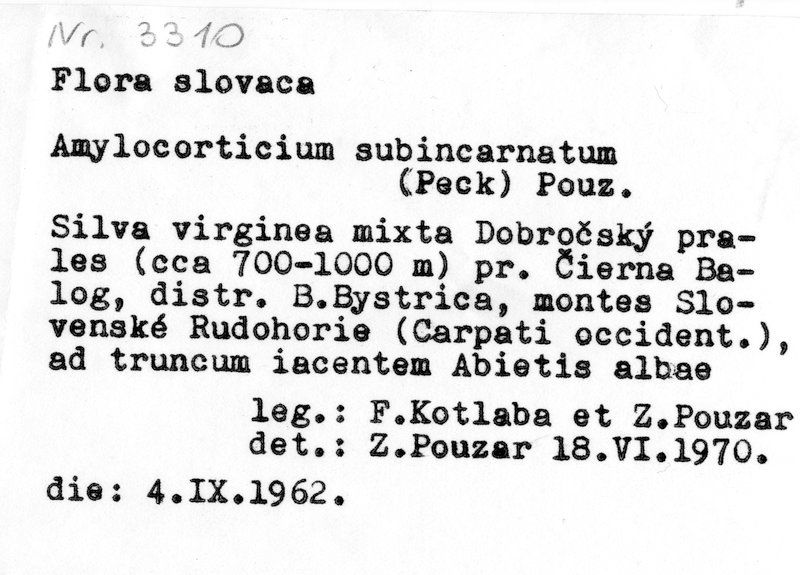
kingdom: Fungi
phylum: Basidiomycota
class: Agaricomycetes
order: Amylocorticiales
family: Amylocorticiaceae
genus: Amylocorticium
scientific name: Amylocorticium subincarnatum
